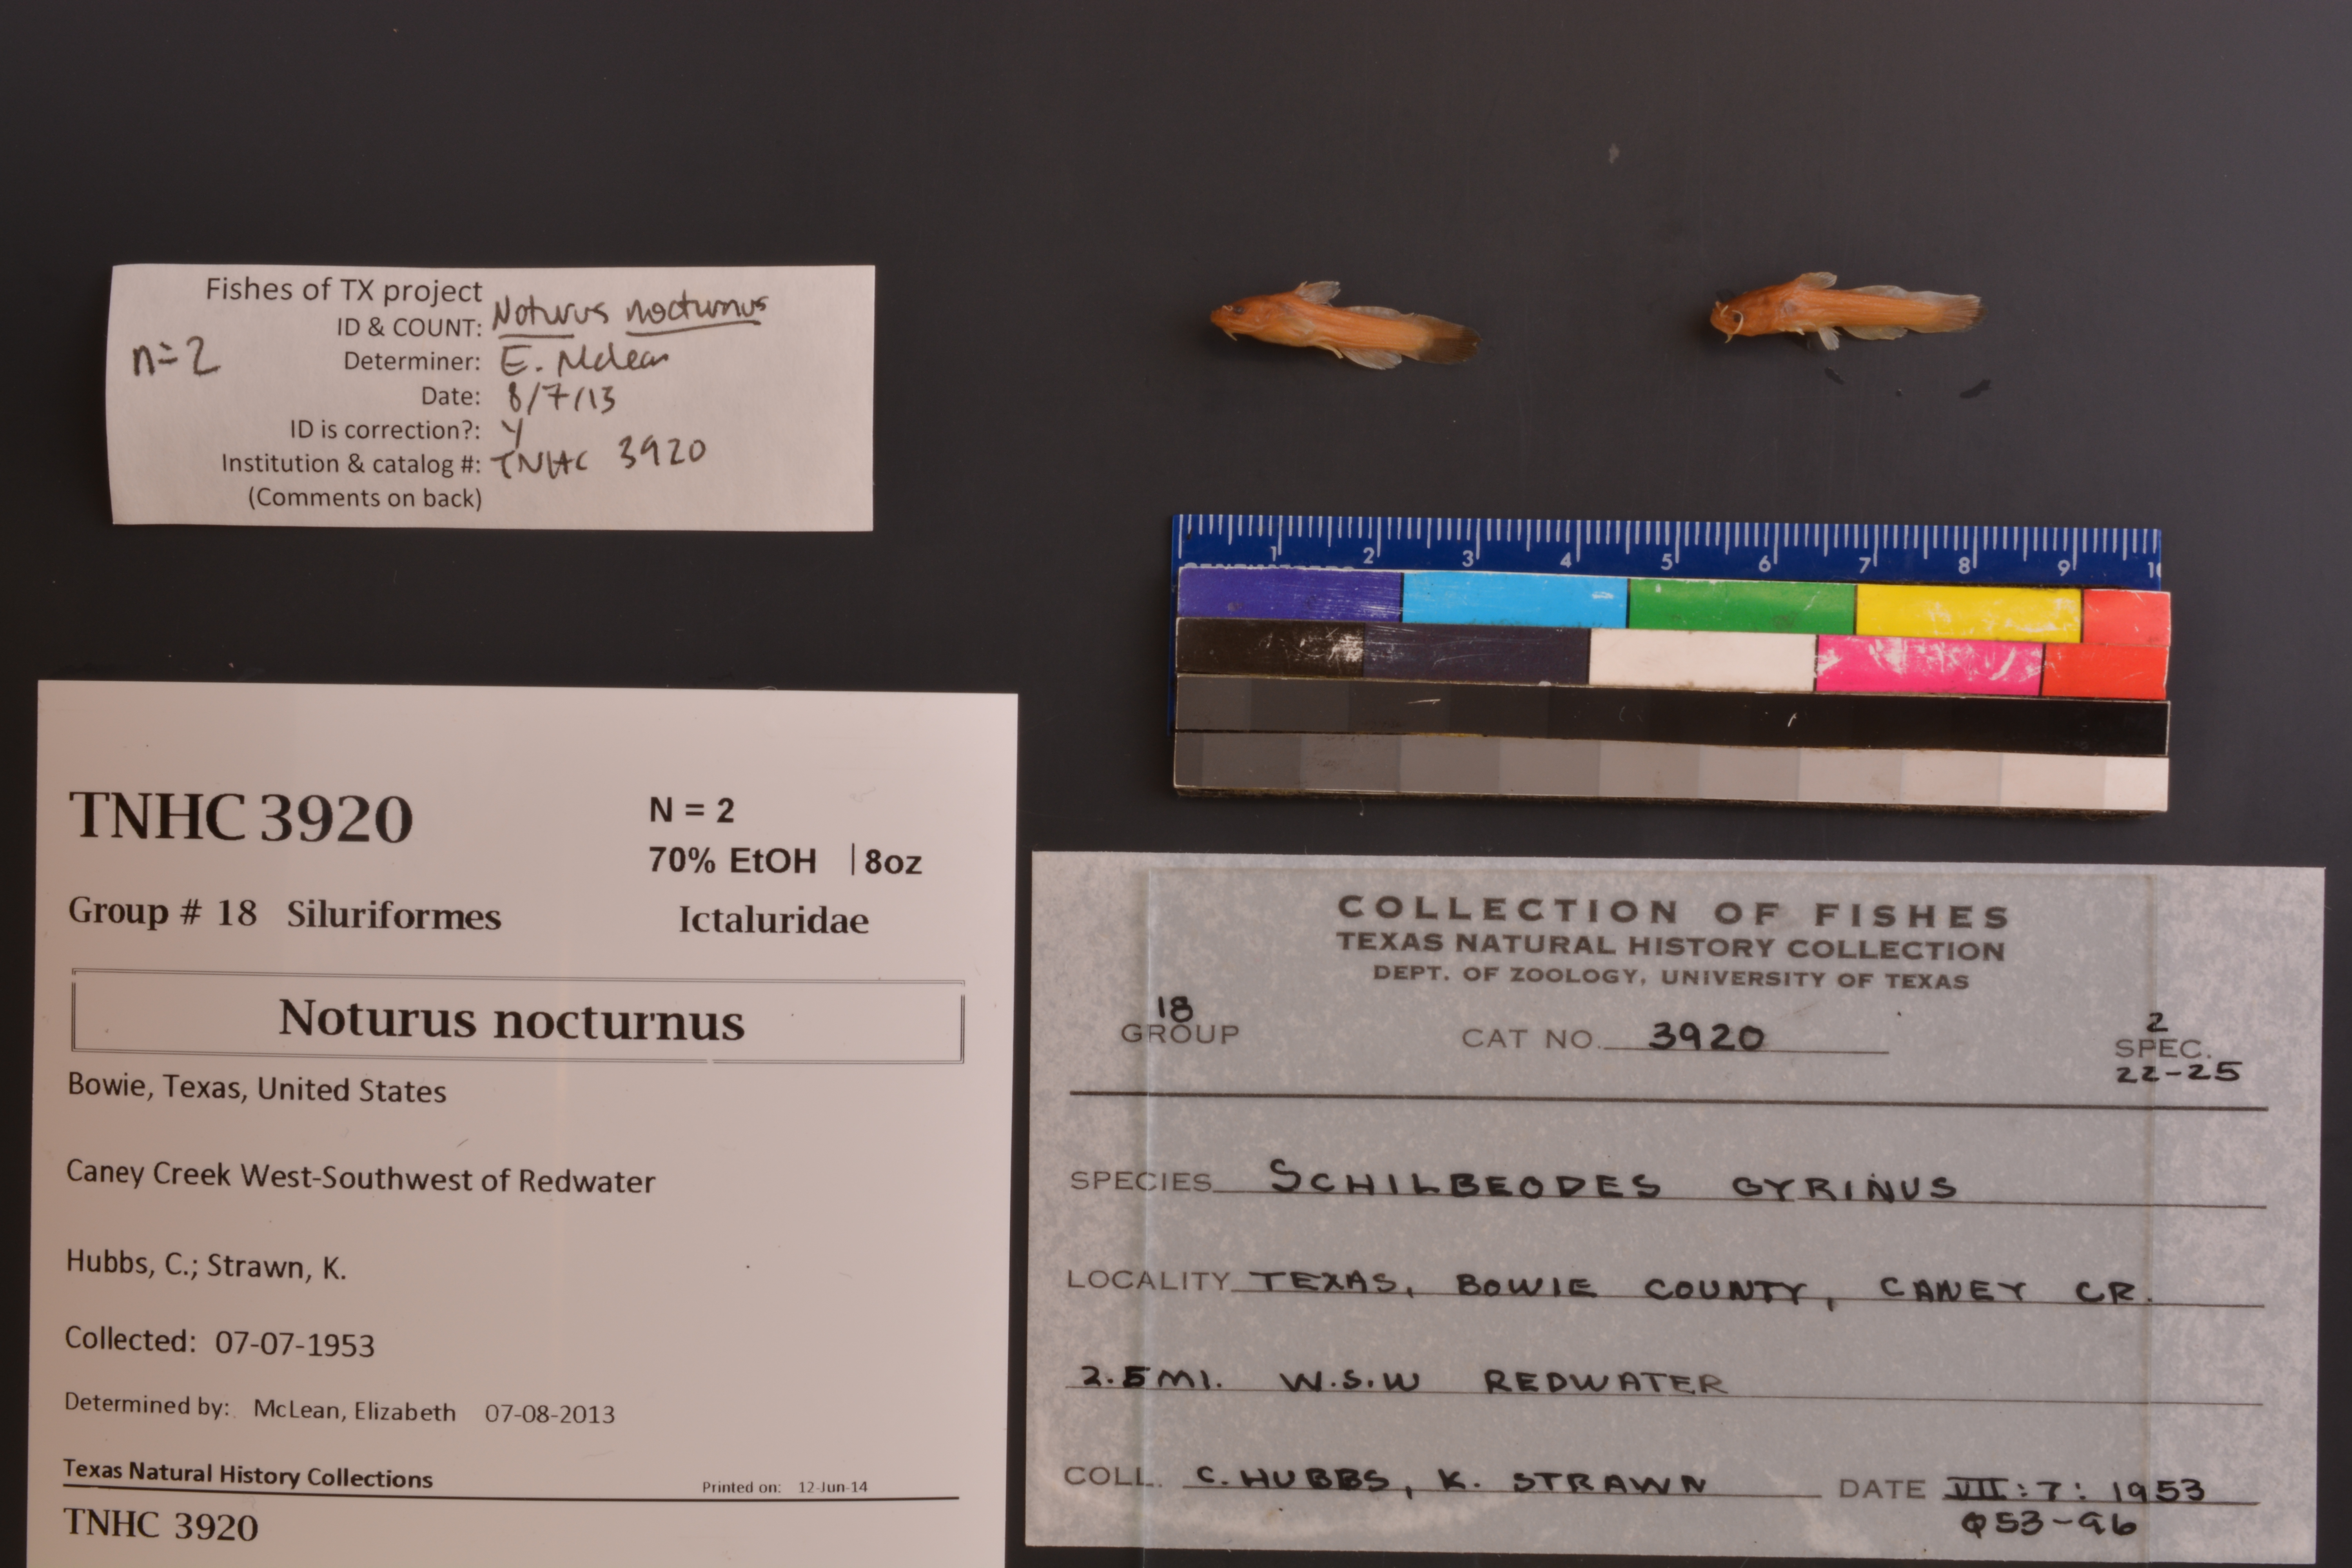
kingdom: Animalia
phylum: Chordata
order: Siluriformes
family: Ictaluridae
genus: Noturus
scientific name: Noturus nocturnus
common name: Freckled madtom
